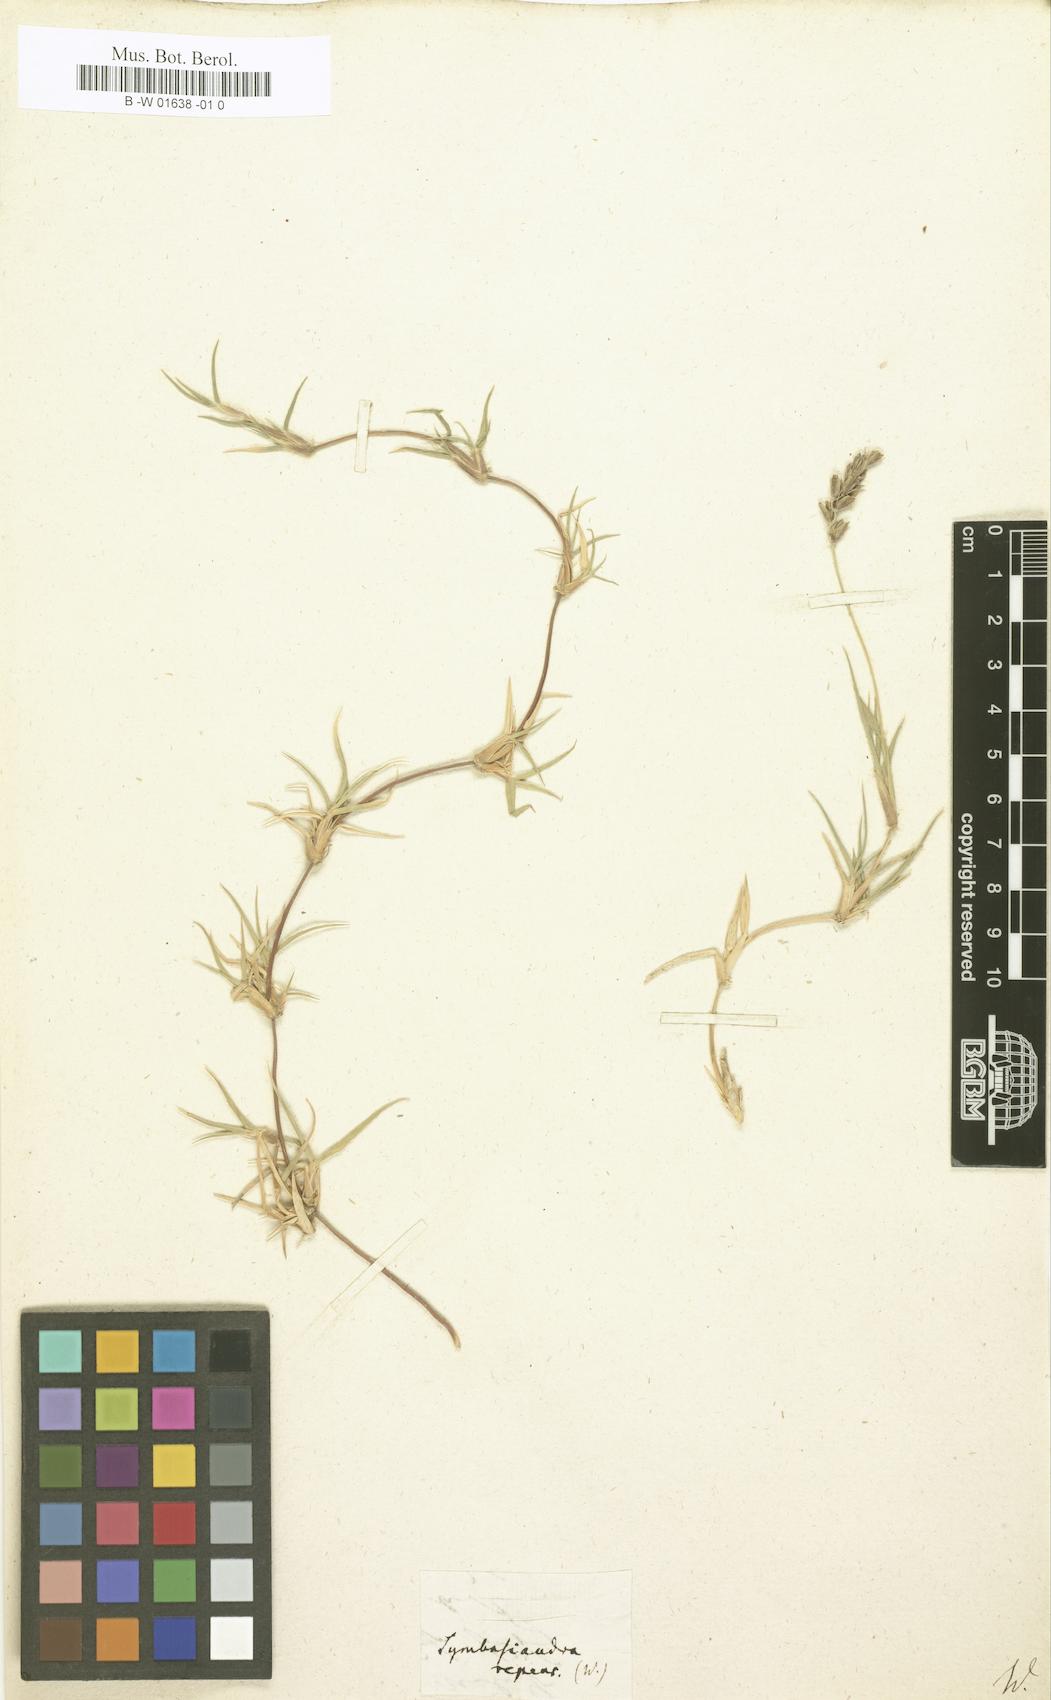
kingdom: Plantae
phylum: Tracheophyta
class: Liliopsida
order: Poales
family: Poaceae
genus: Hilaria
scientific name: Hilaria cenchroides
